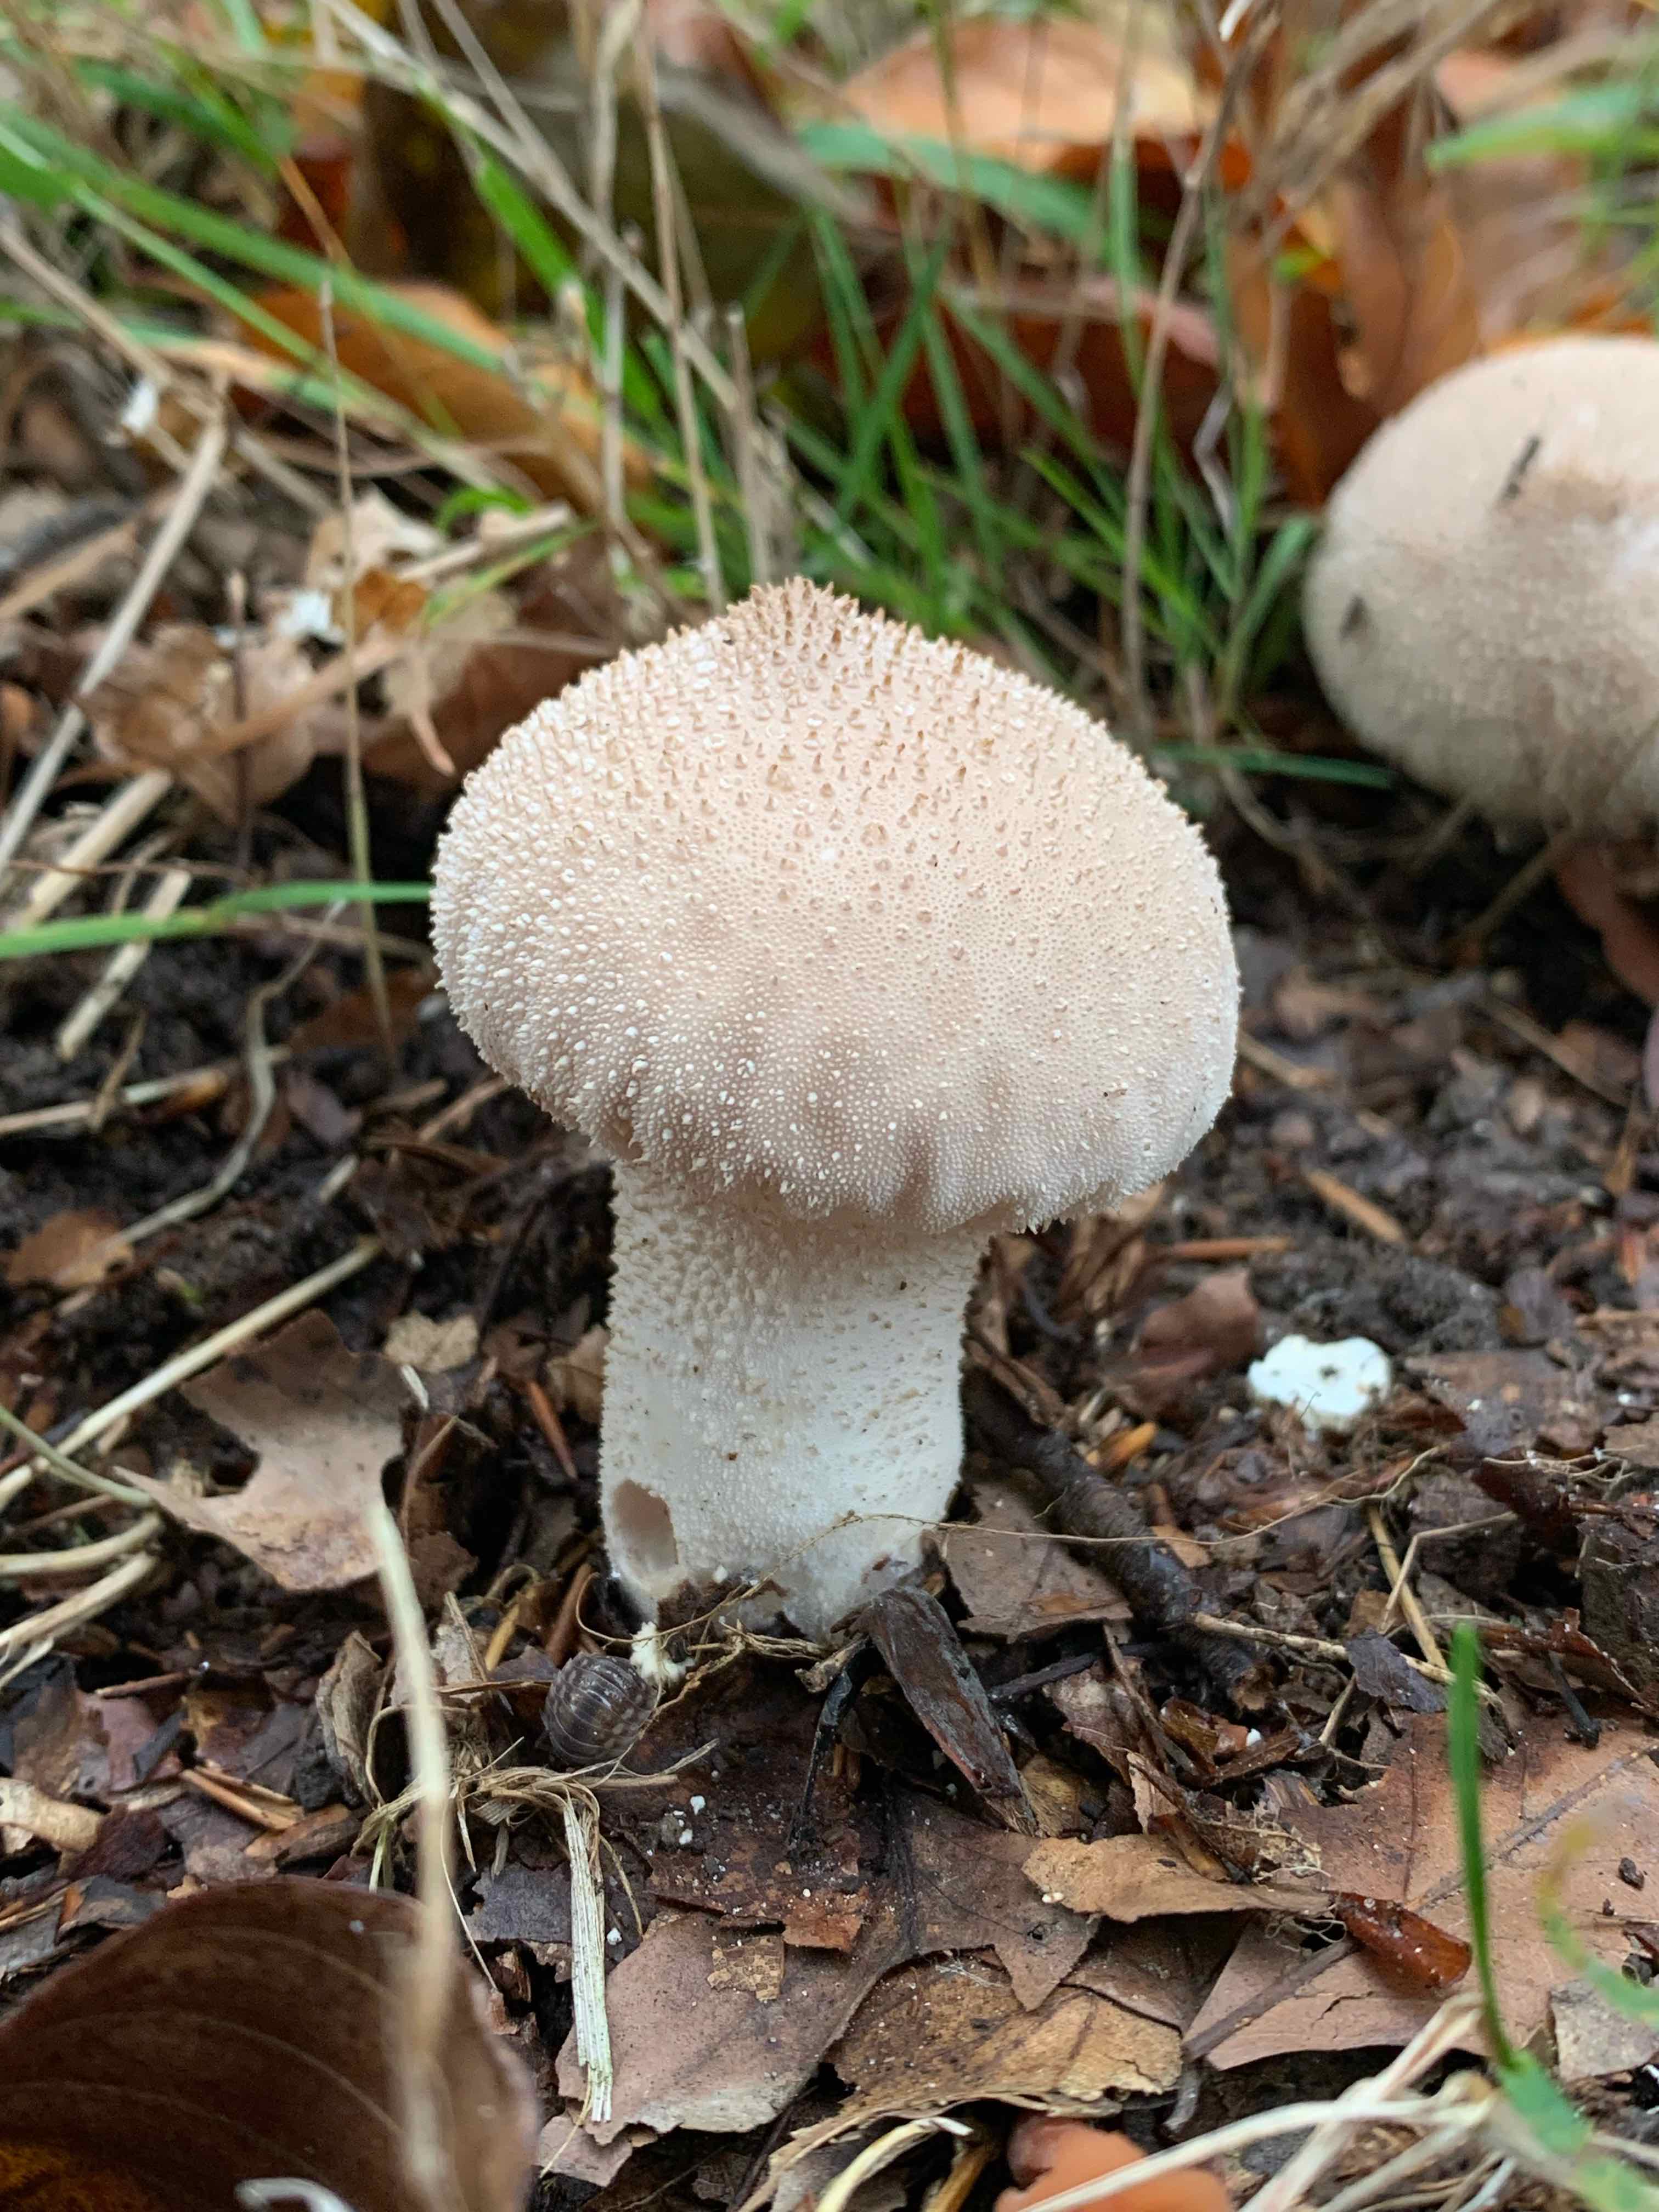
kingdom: Fungi
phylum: Basidiomycota
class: Agaricomycetes
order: Agaricales
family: Lycoperdaceae
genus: Lycoperdon
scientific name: Lycoperdon perlatum
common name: krystal-støvbold
